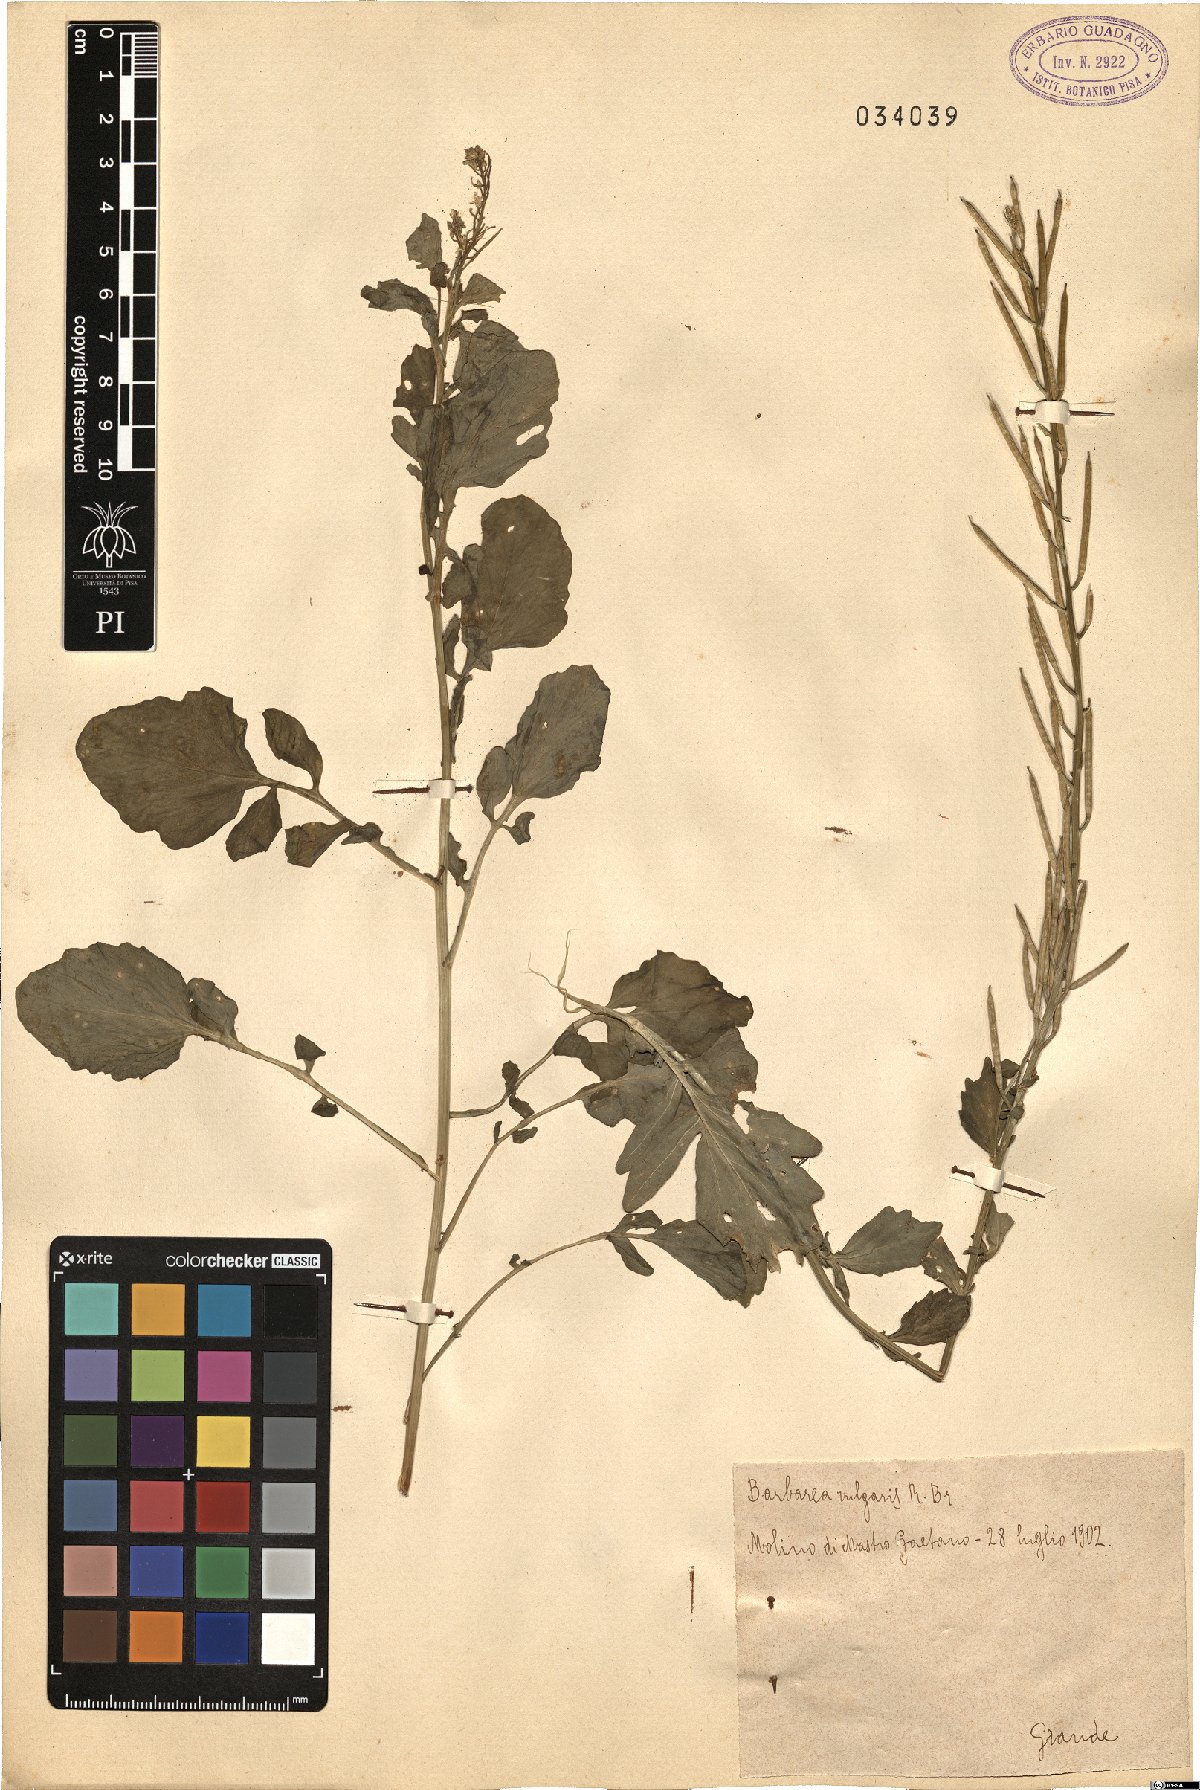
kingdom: Plantae
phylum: Tracheophyta
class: Magnoliopsida
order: Brassicales
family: Brassicaceae
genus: Barbarea
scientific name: Barbarea vulgaris
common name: Cressy-greens
